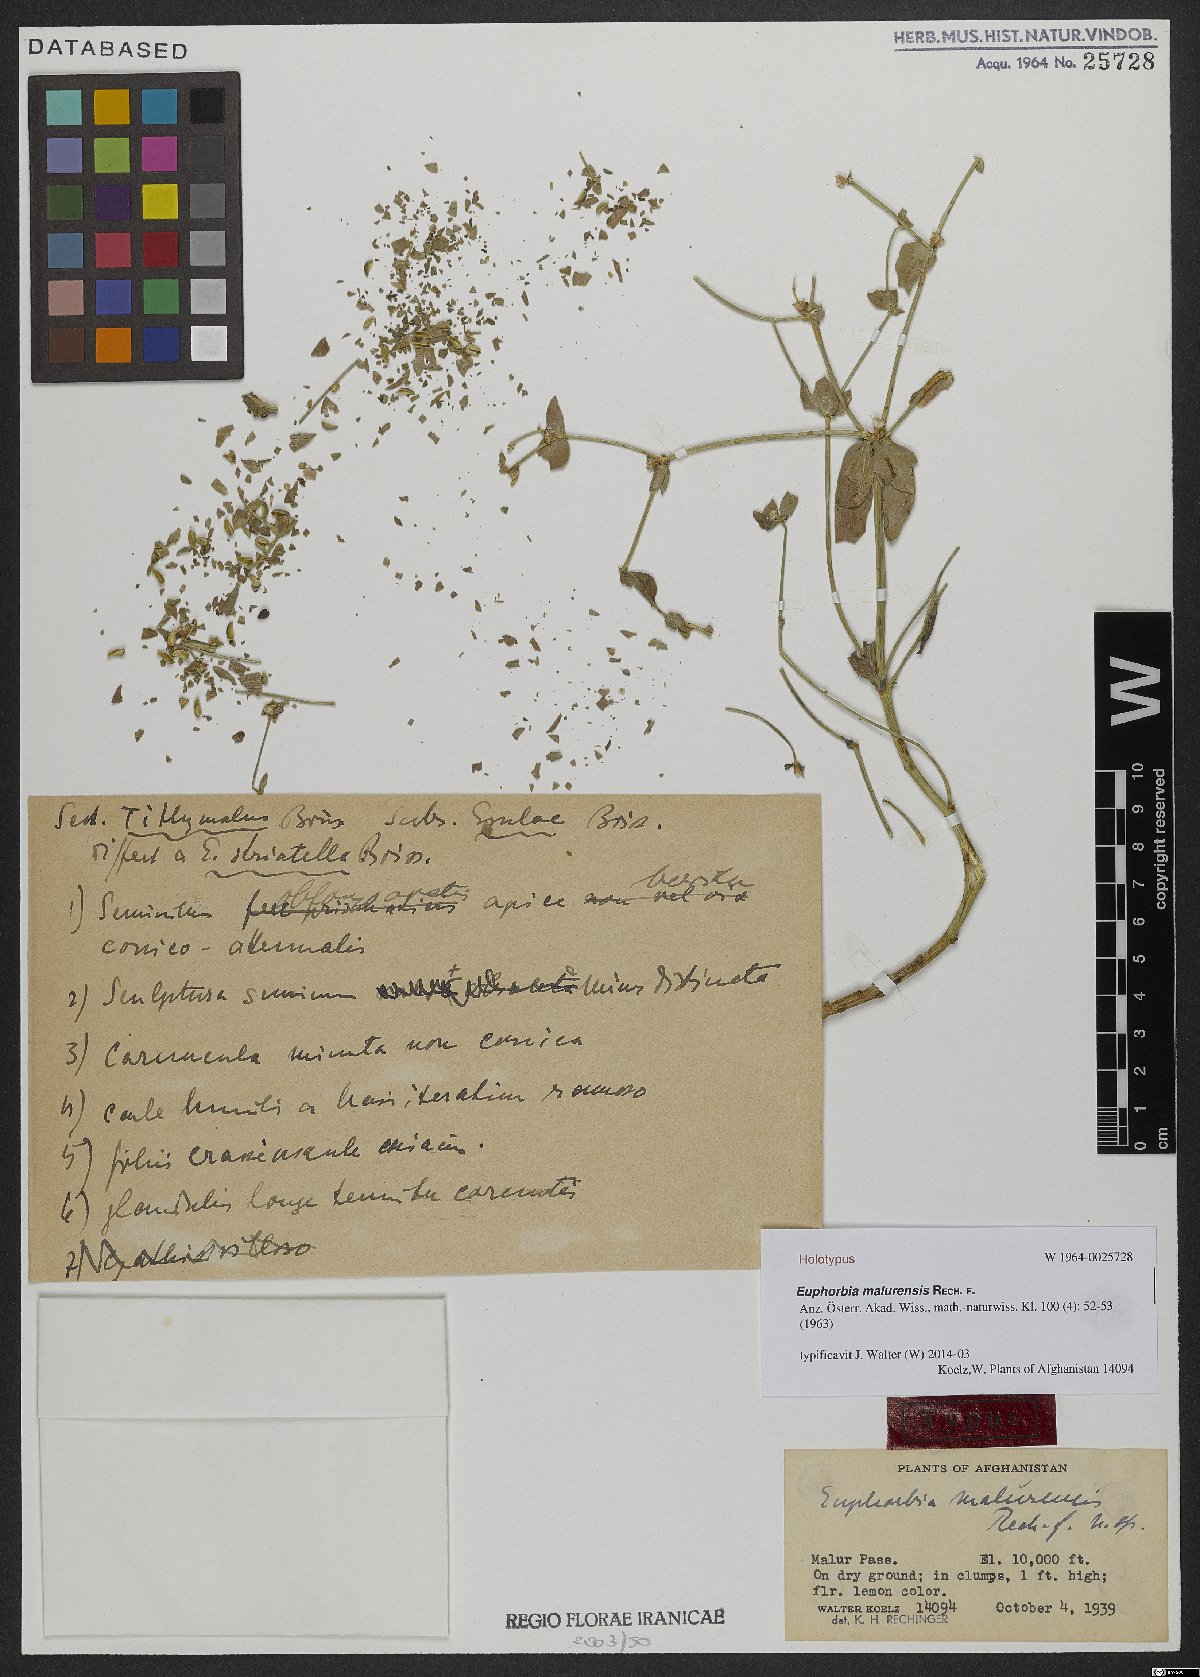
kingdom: Plantae
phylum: Tracheophyta
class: Magnoliopsida
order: Malpighiales
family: Euphorbiaceae
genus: Euphorbia
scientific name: Euphorbia malurensis
